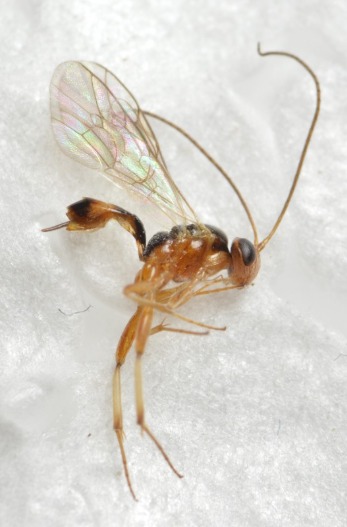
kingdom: Animalia
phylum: Arthropoda
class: Insecta
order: Hymenoptera
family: Ichneumonidae
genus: Mesochorus
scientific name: Mesochorus pictilis
